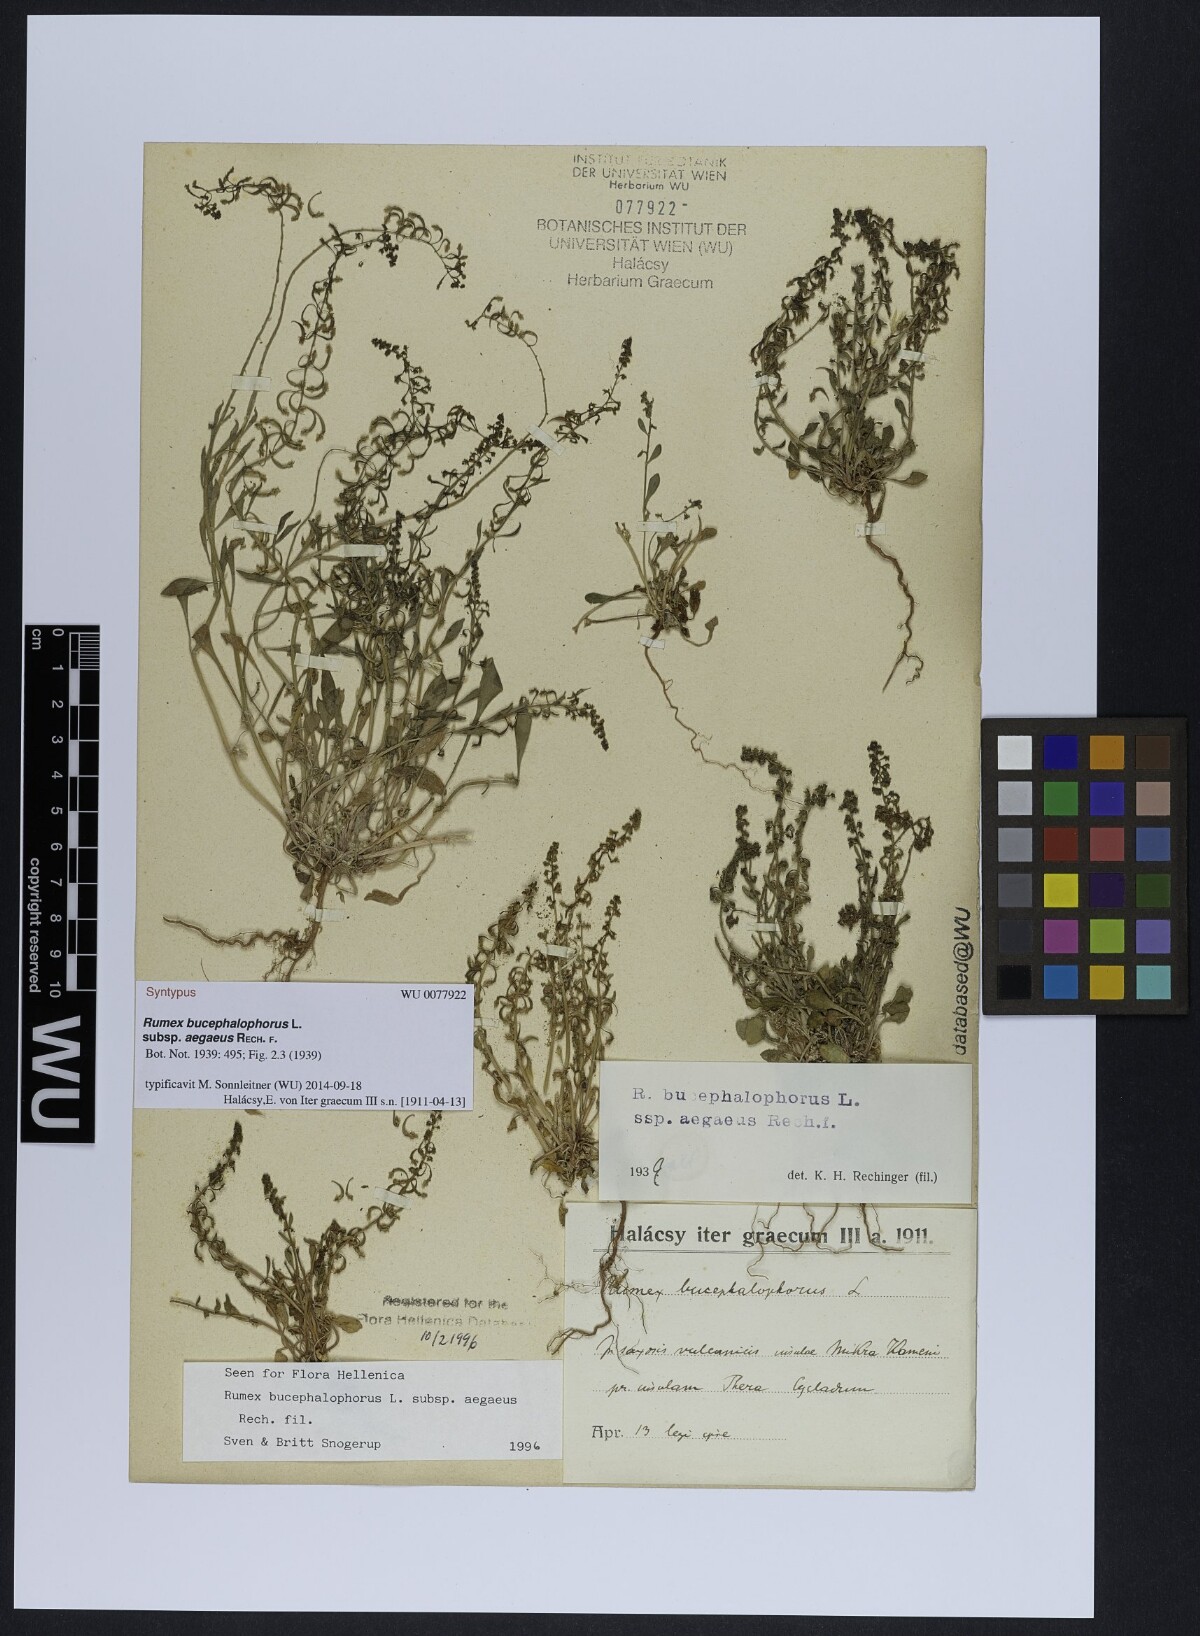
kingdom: Plantae
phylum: Tracheophyta
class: Magnoliopsida
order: Caryophyllales
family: Polygonaceae
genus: Rumex
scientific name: Rumex bucephalophorus
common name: Red dock
